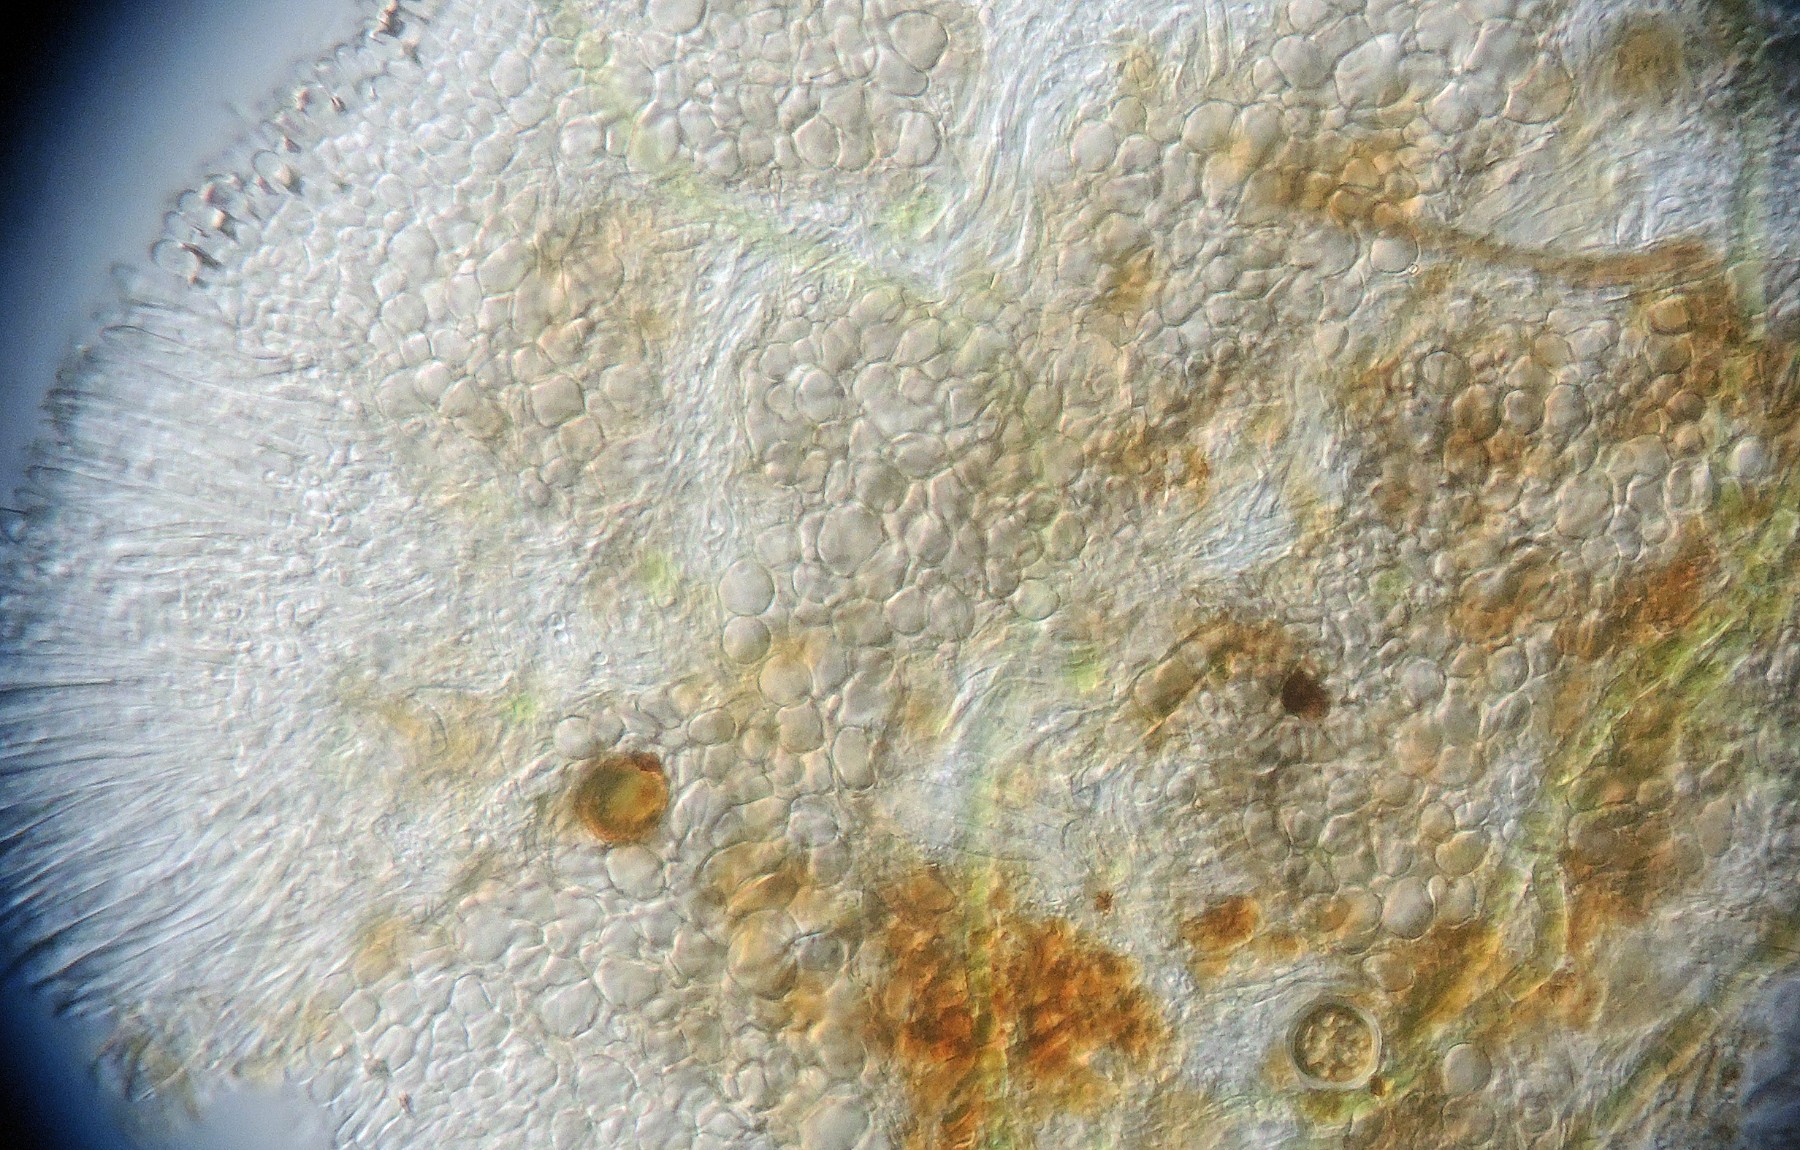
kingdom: Fungi
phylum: Ascomycota
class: Leotiomycetes
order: Helotiales
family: Mollisiaceae
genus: Mollisia
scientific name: Mollisia
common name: gråskive
